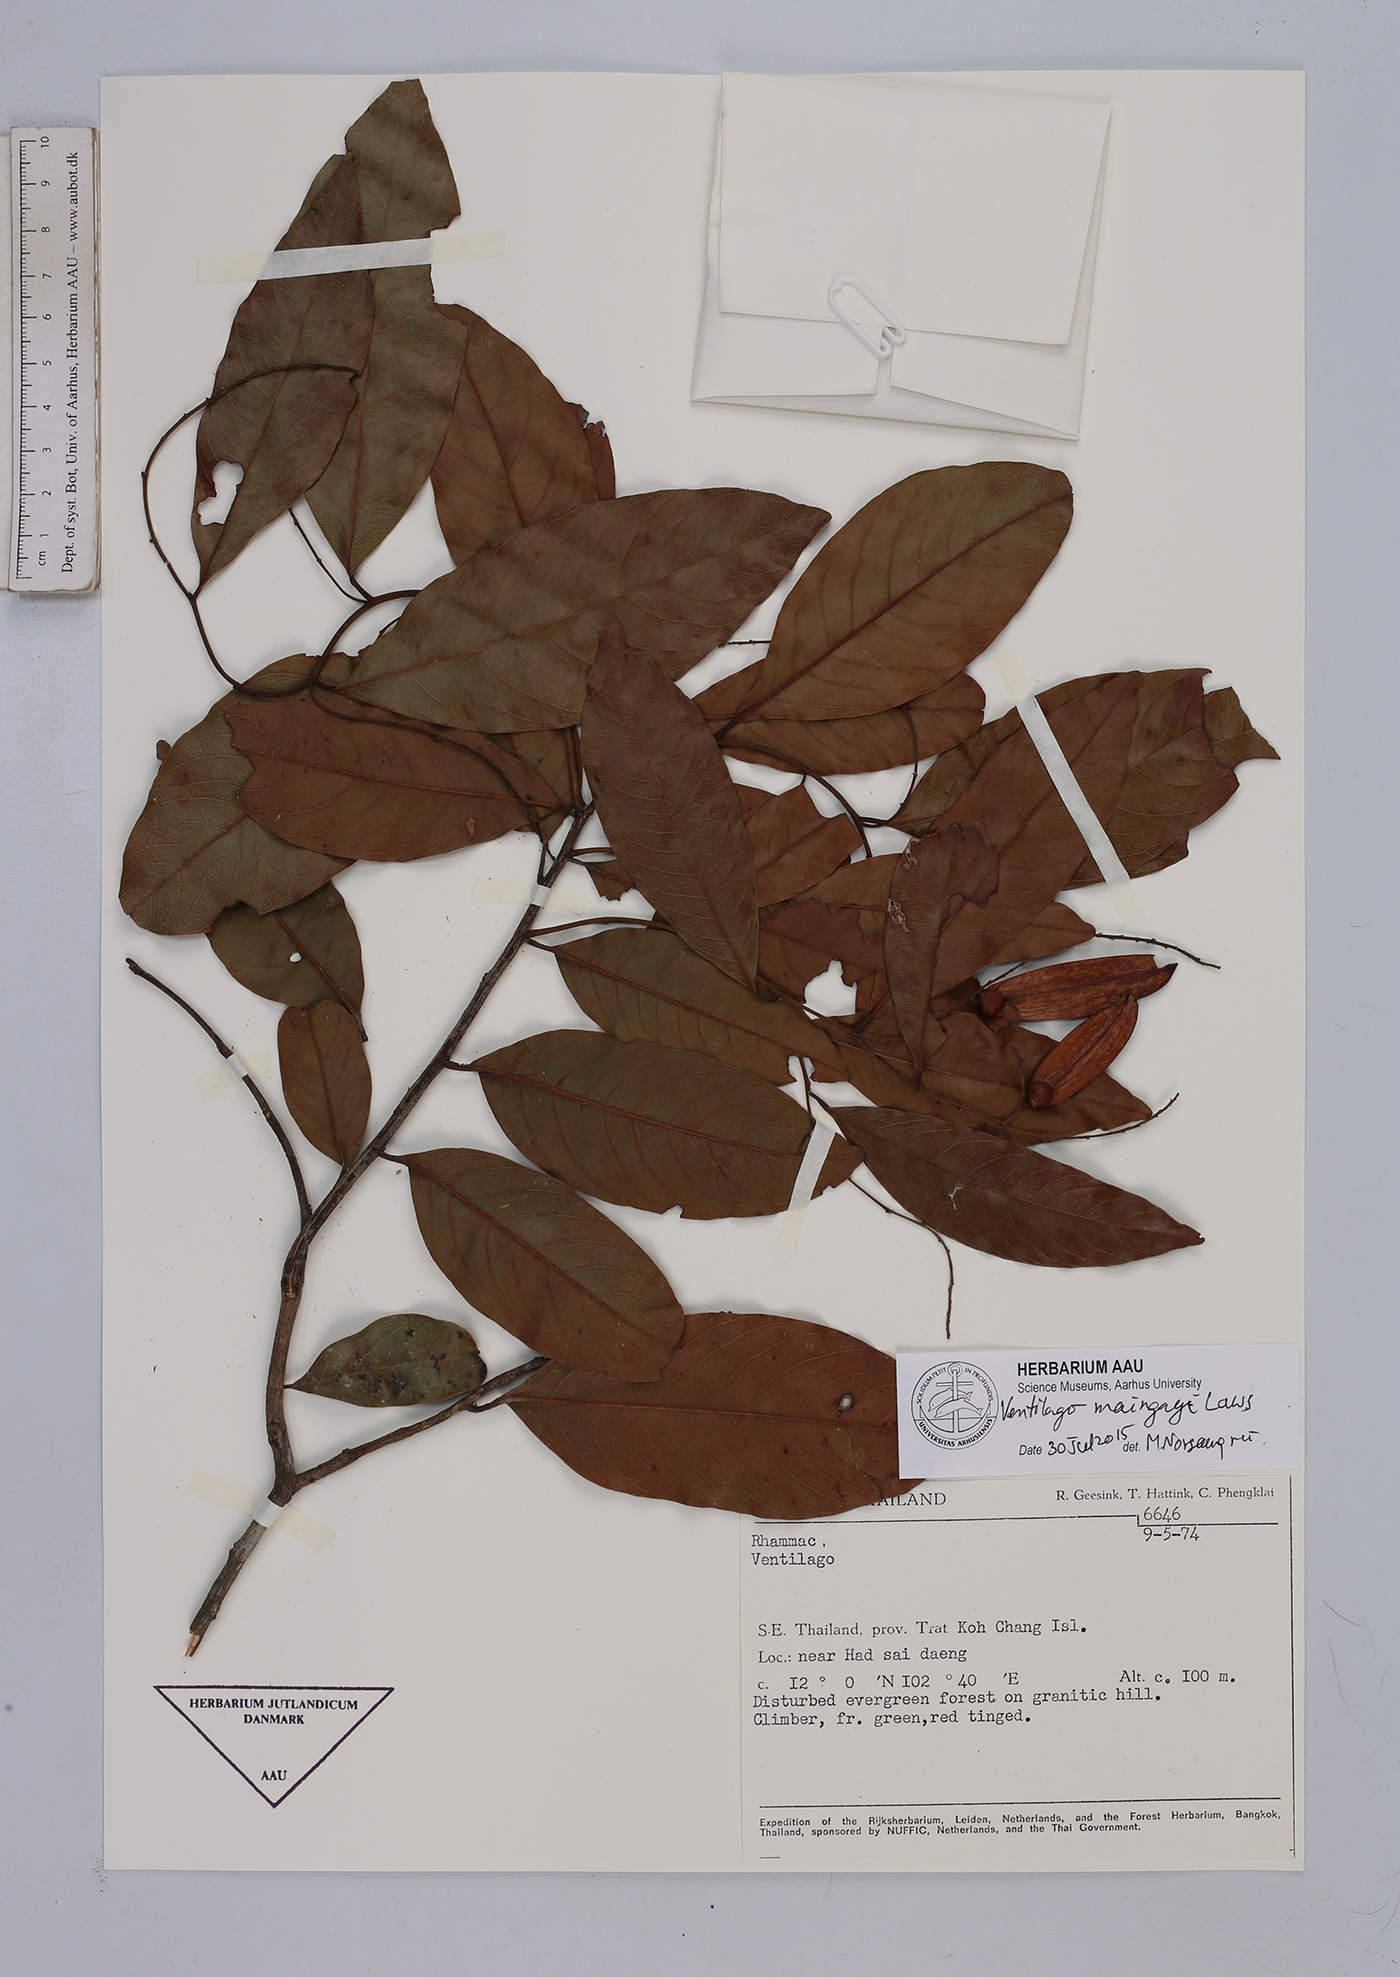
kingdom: Plantae
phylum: Tracheophyta
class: Magnoliopsida
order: Rosales
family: Rhamnaceae
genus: Ventilago
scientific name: Ventilago maingayi
